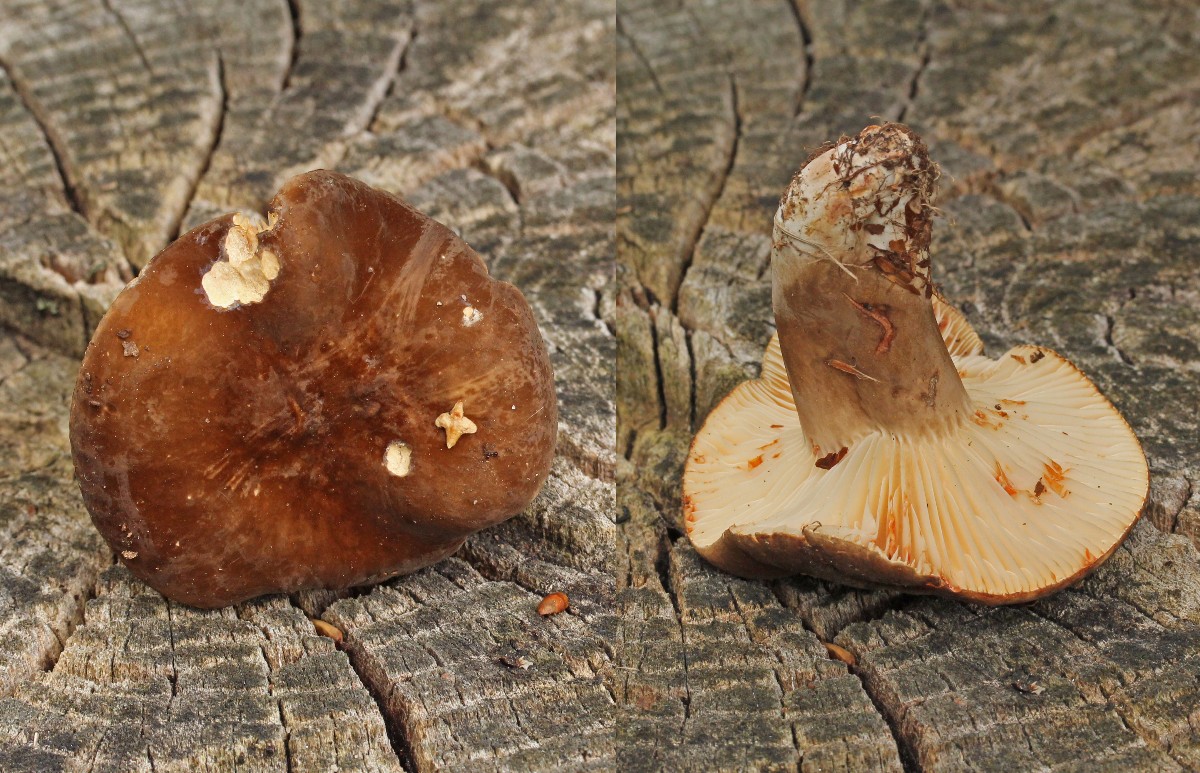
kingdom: Fungi
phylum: Basidiomycota
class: Agaricomycetes
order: Russulales
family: Russulaceae
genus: Lactarius
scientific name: Lactarius romagnesii
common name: fjernbladet mælkehat
